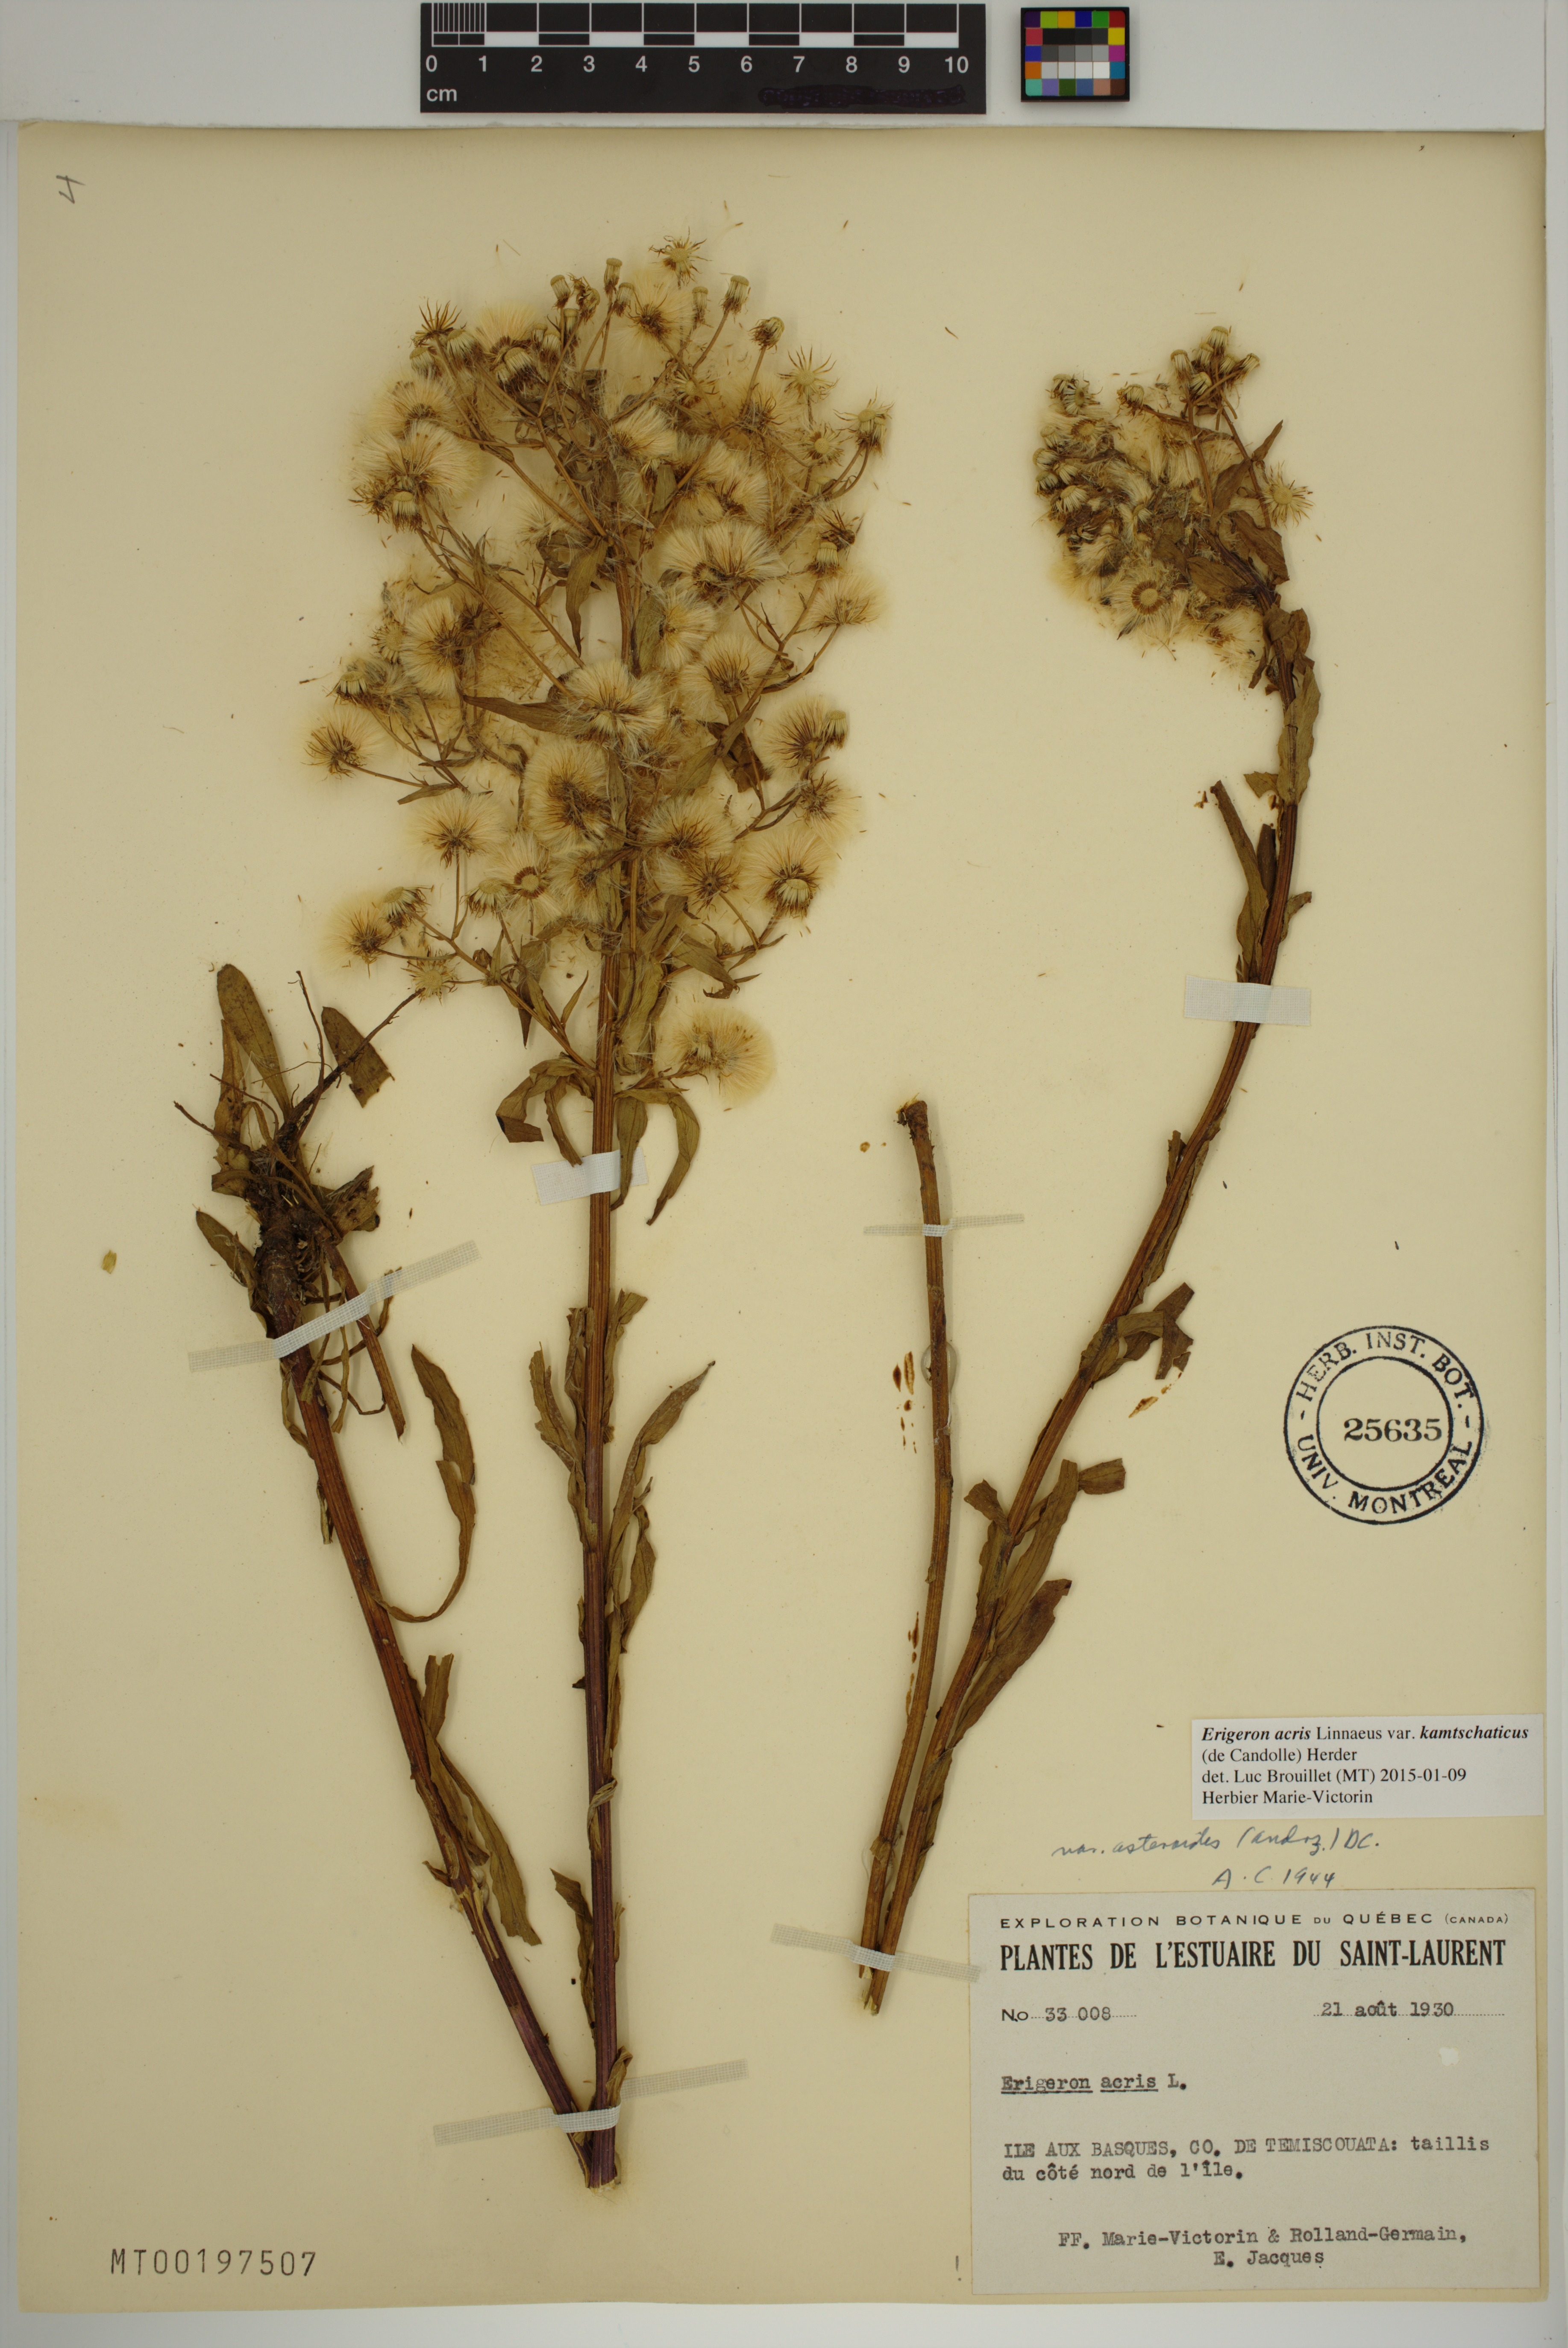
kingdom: Plantae
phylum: Tracheophyta
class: Magnoliopsida
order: Asterales
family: Asteraceae
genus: Erigeron
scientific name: Erigeron kamtschaticus
